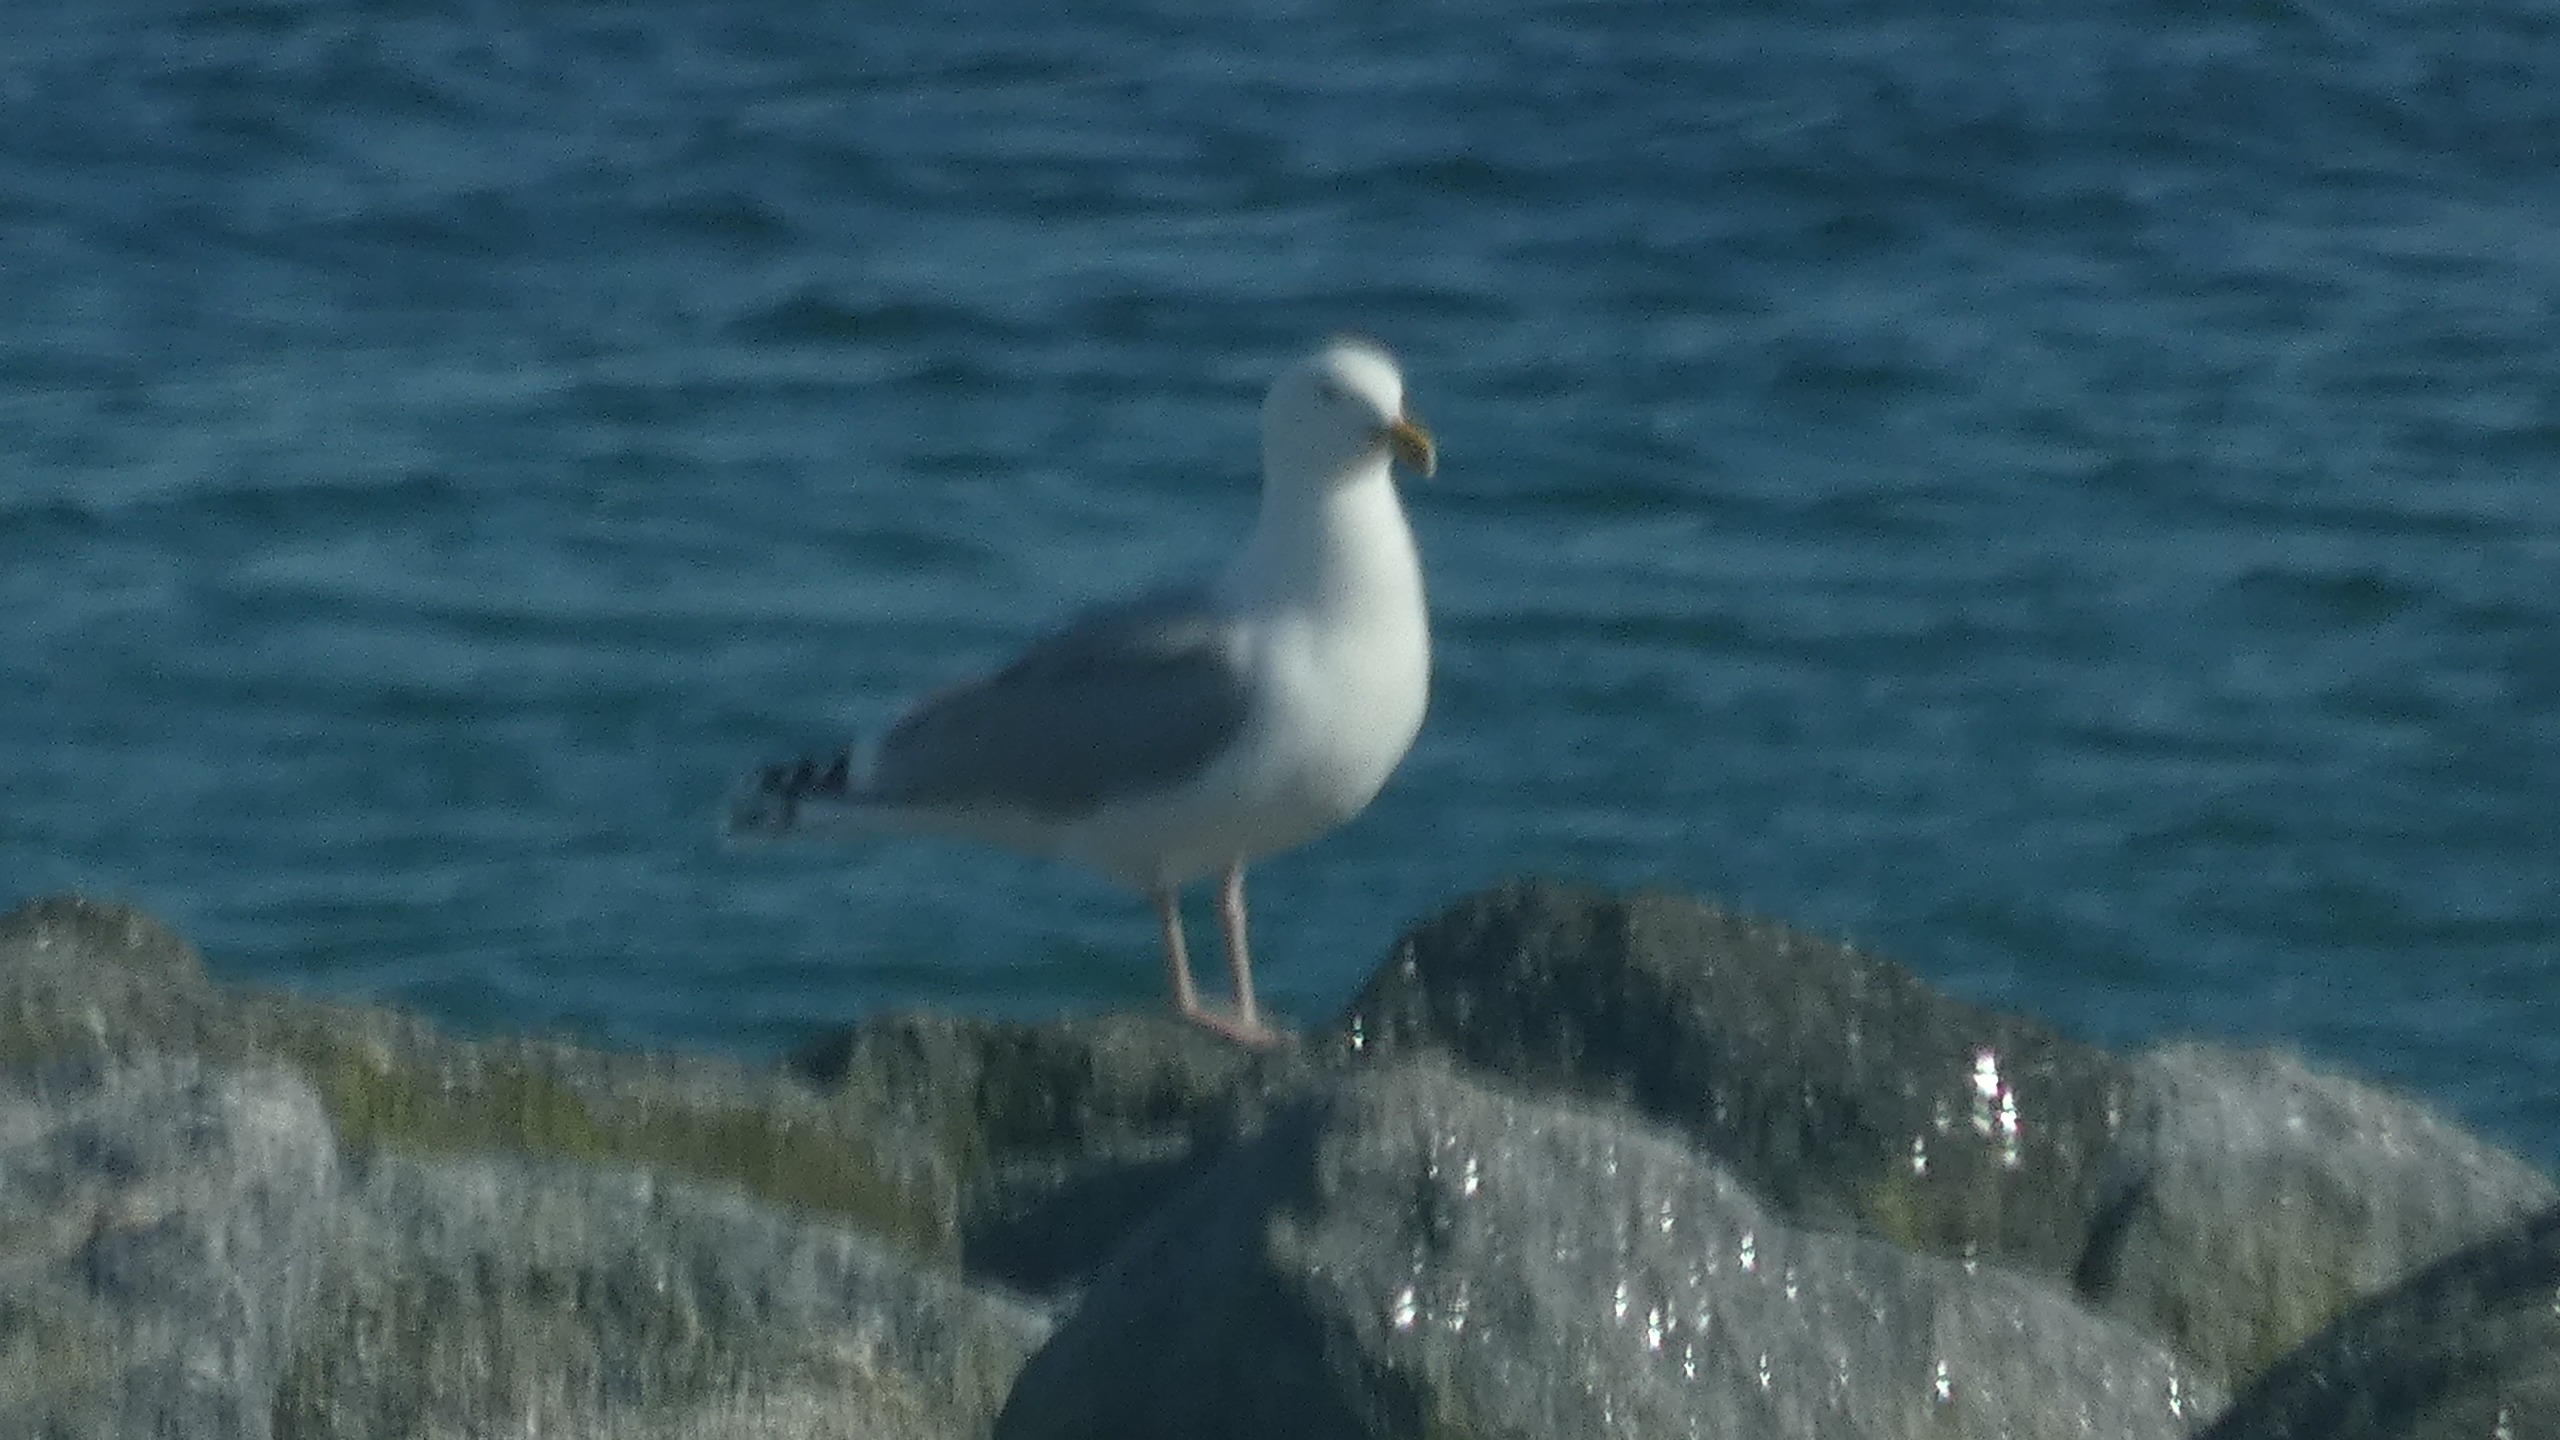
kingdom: Animalia
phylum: Chordata
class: Aves
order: Charadriiformes
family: Laridae
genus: Larus
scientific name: Larus argentatus
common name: Sølvmåge
